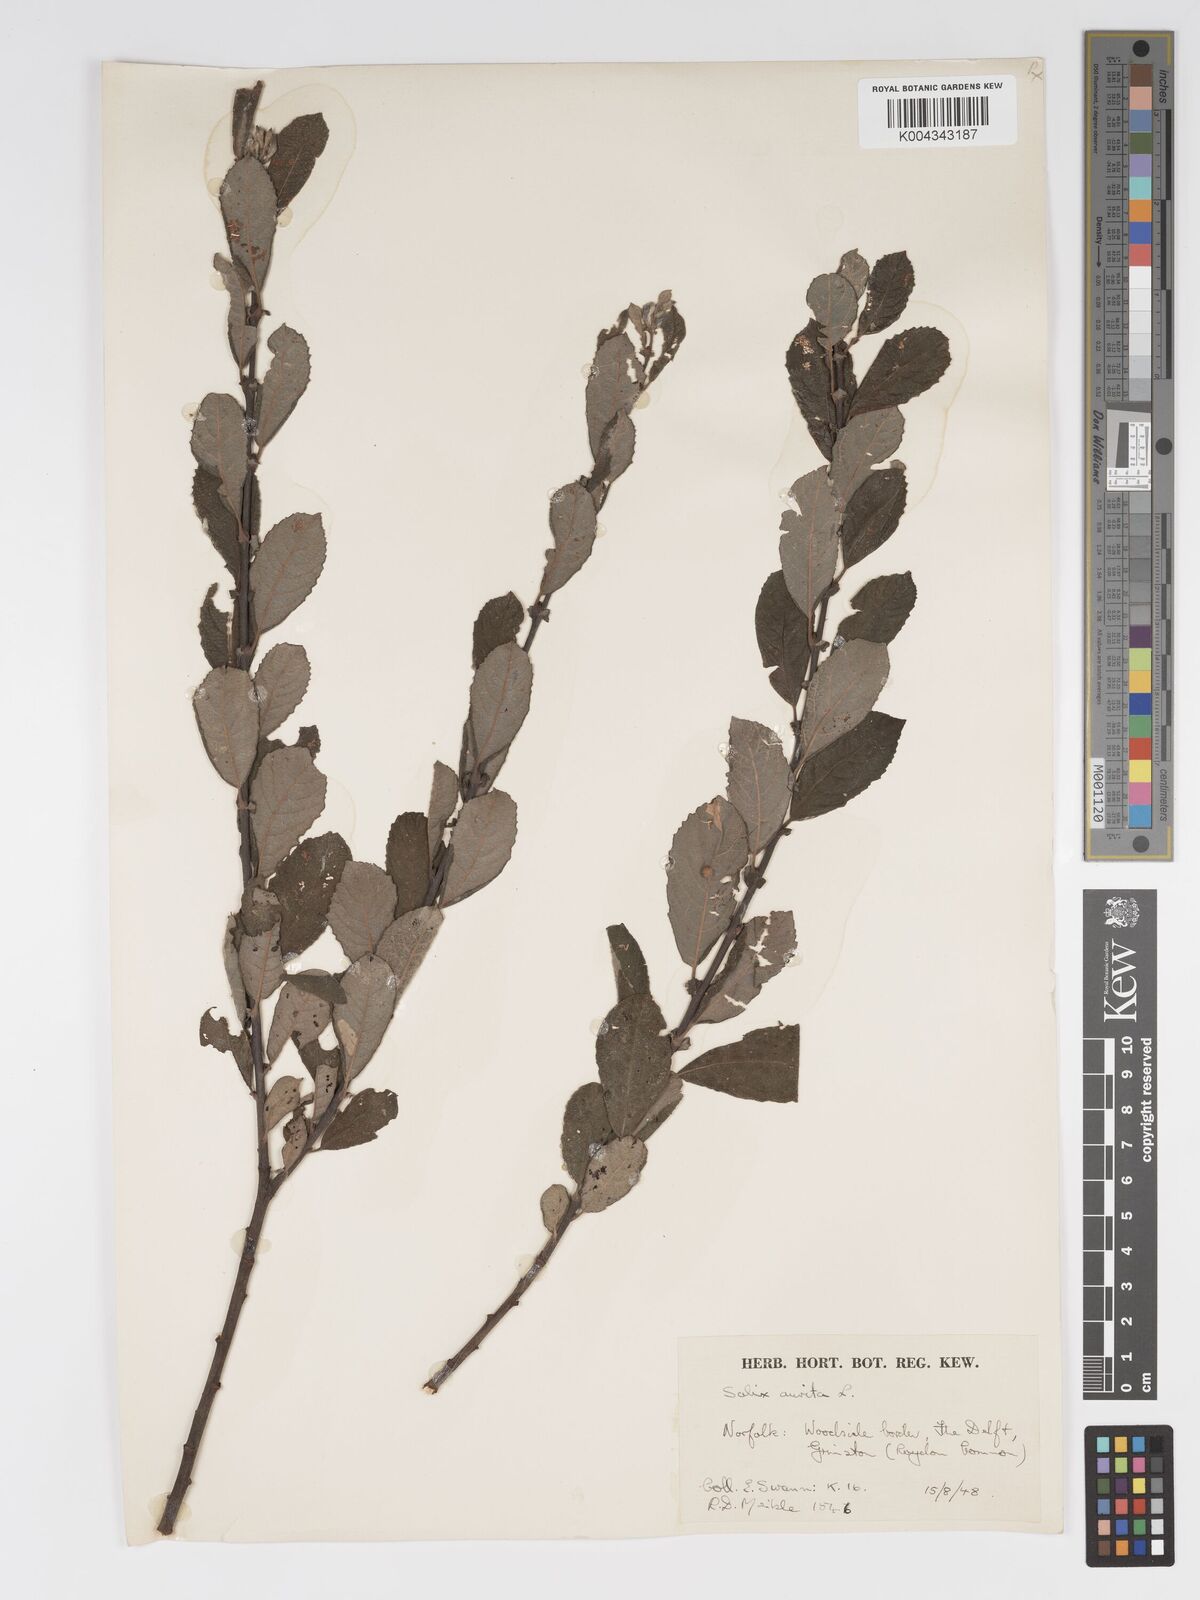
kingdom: Plantae
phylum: Tracheophyta
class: Magnoliopsida
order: Malpighiales
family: Salicaceae
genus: Salix
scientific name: Salix aurita
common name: Eared willow
